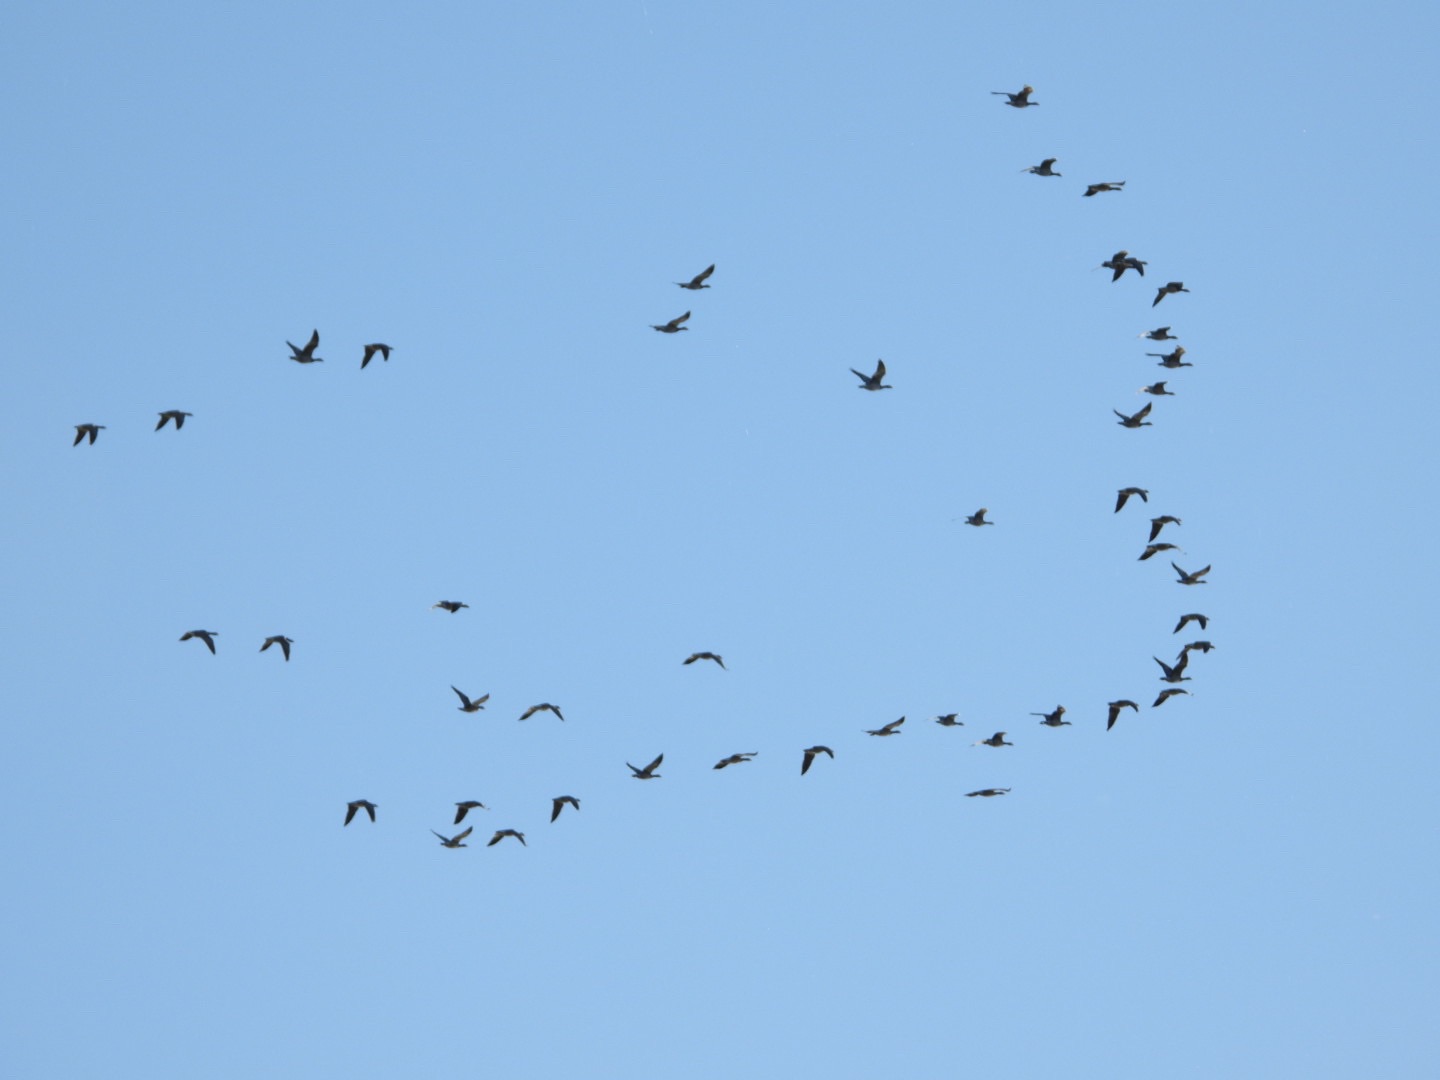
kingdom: Animalia
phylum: Chordata
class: Aves
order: Anseriformes
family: Anatidae
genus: Branta
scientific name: Branta leucopsis
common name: Bramgås
